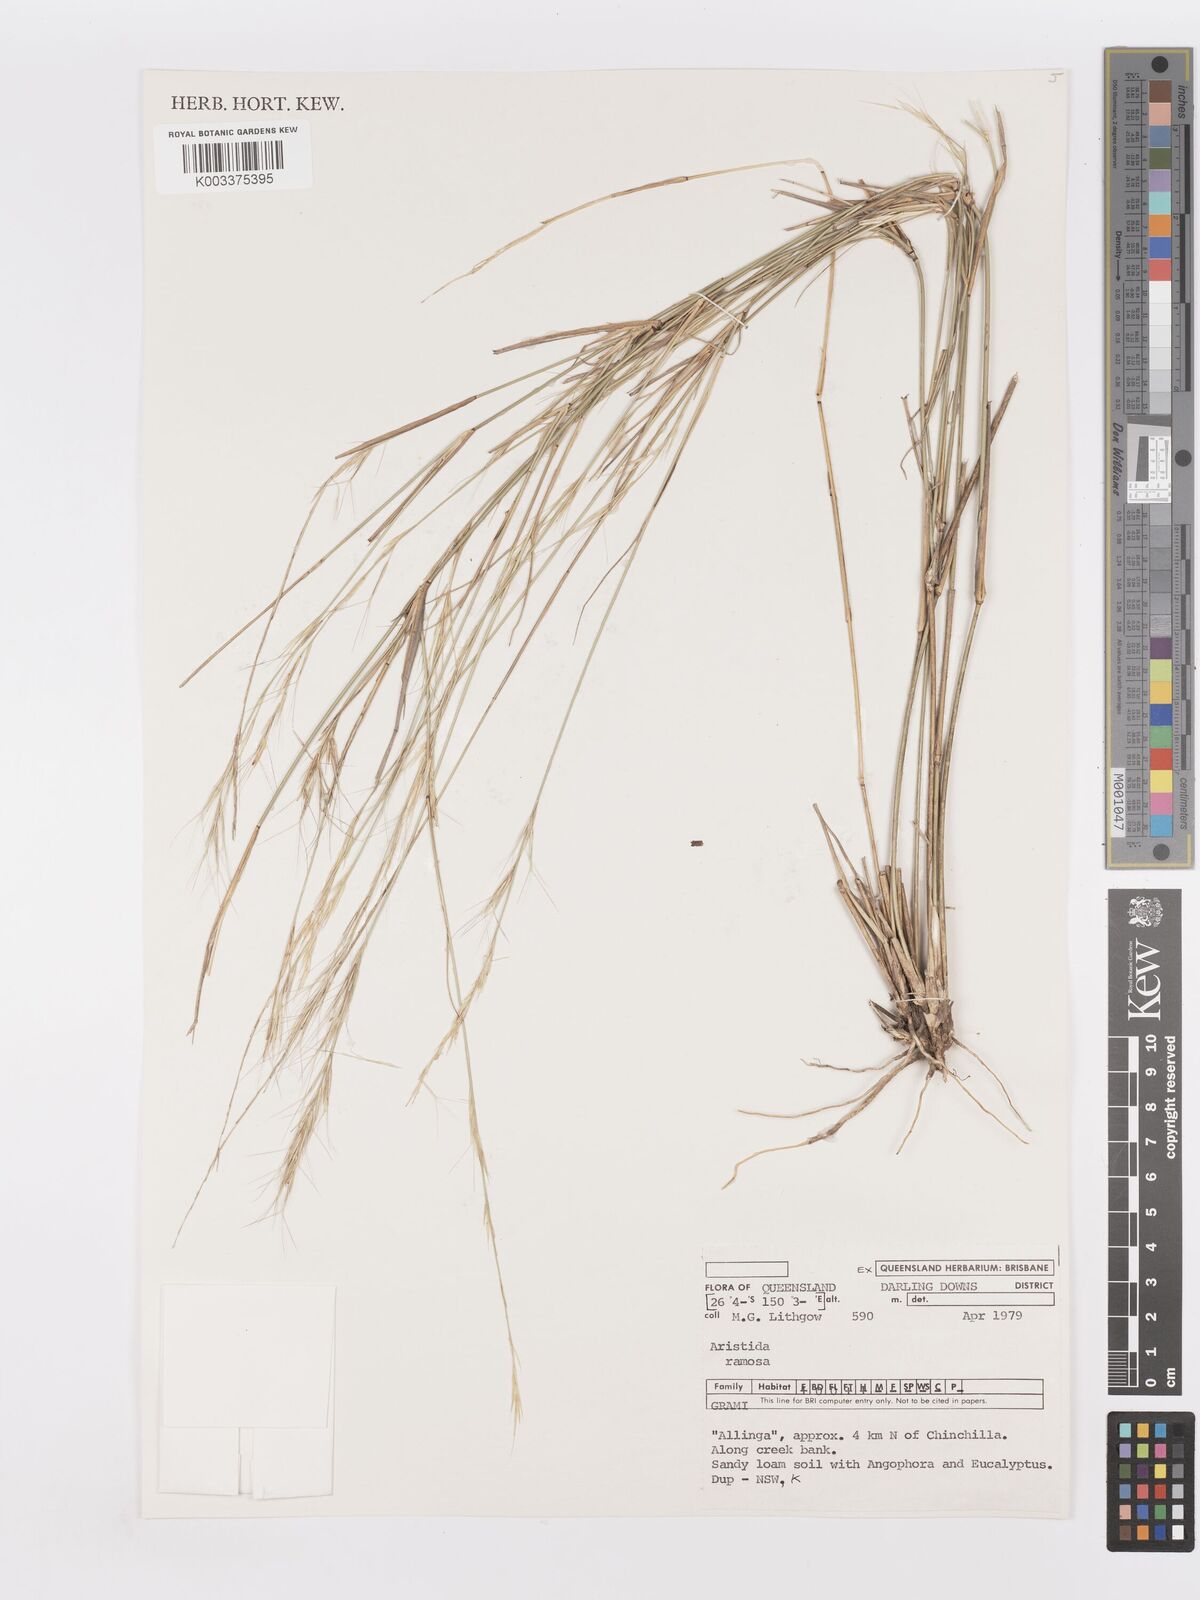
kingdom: Plantae
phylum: Tracheophyta
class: Liliopsida
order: Poales
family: Poaceae
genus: Aristida
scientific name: Aristida ramosa
